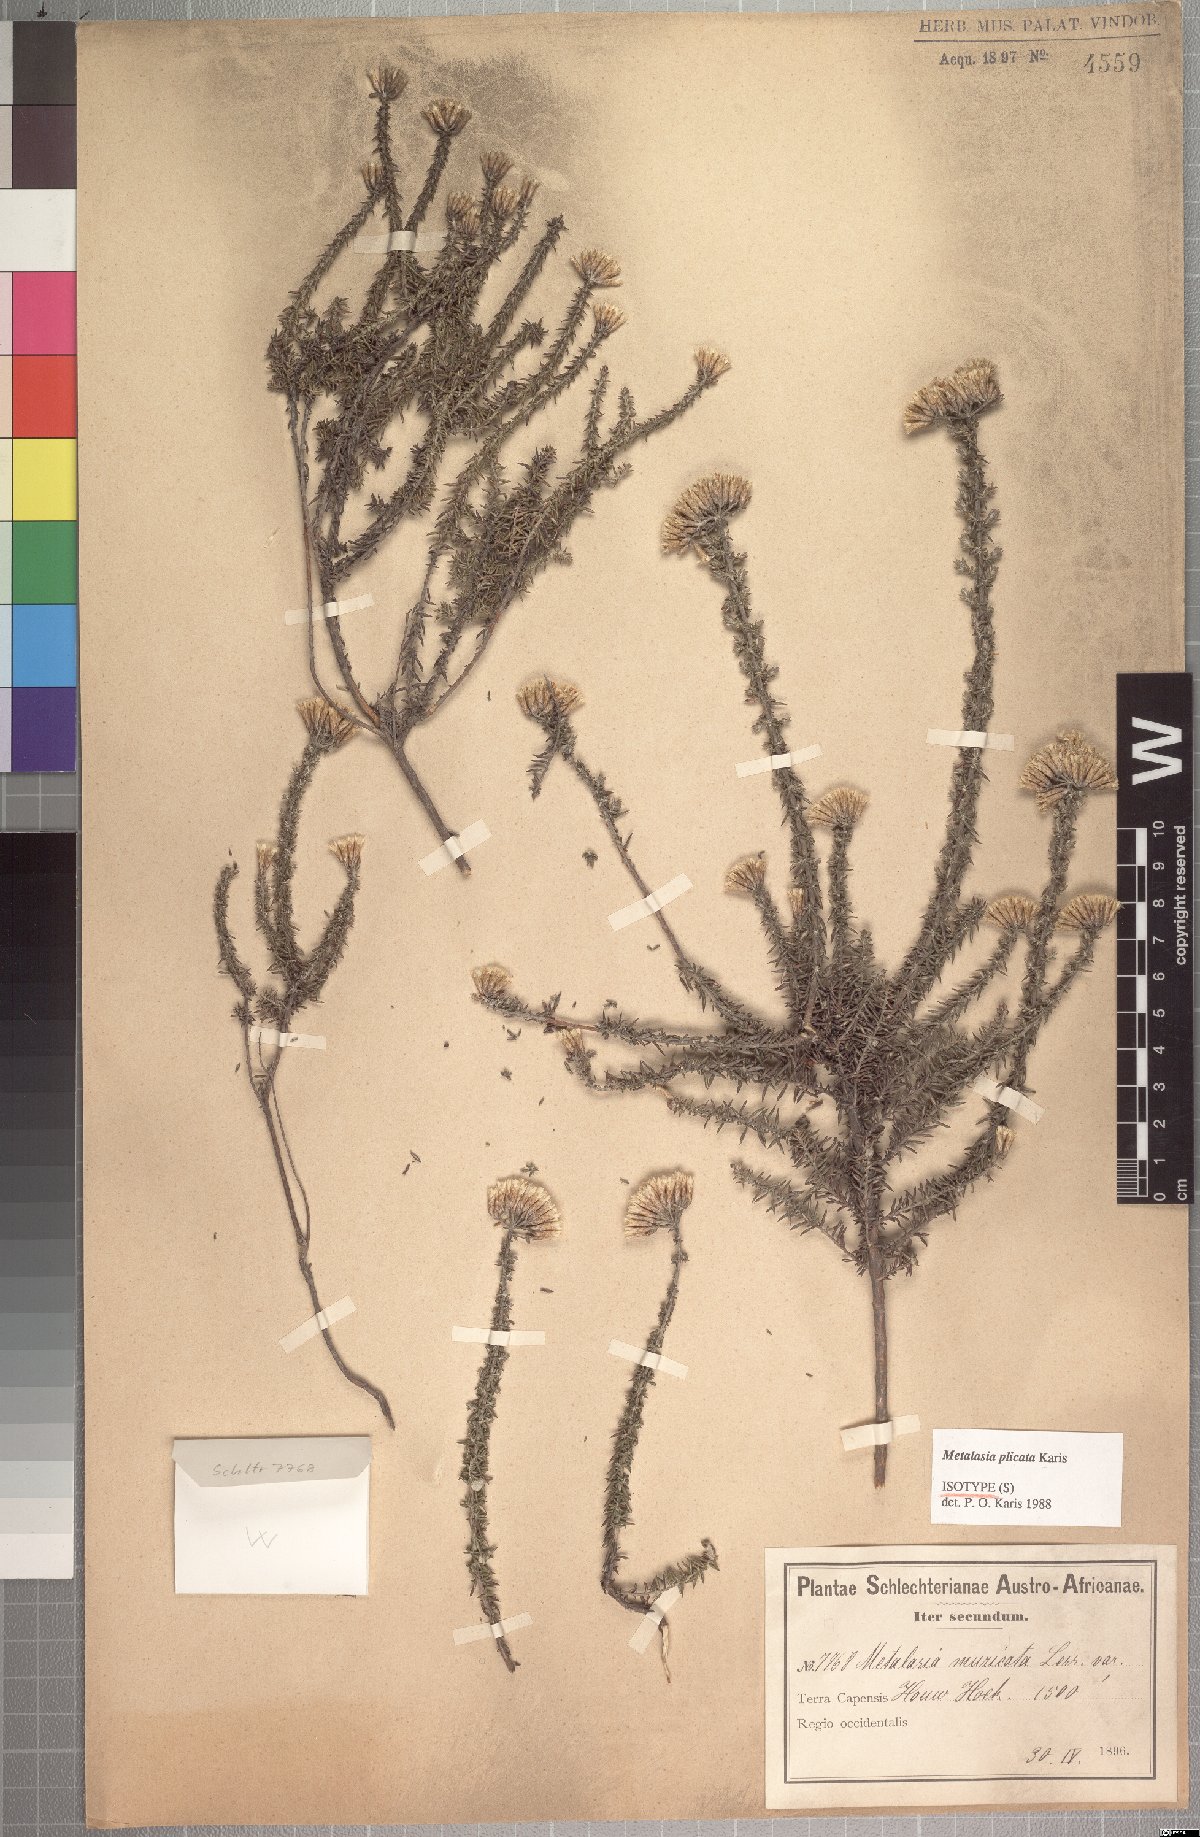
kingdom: Plantae
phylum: Tracheophyta
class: Magnoliopsida
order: Asterales
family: Asteraceae
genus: Metalasia
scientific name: Metalasia plicata
